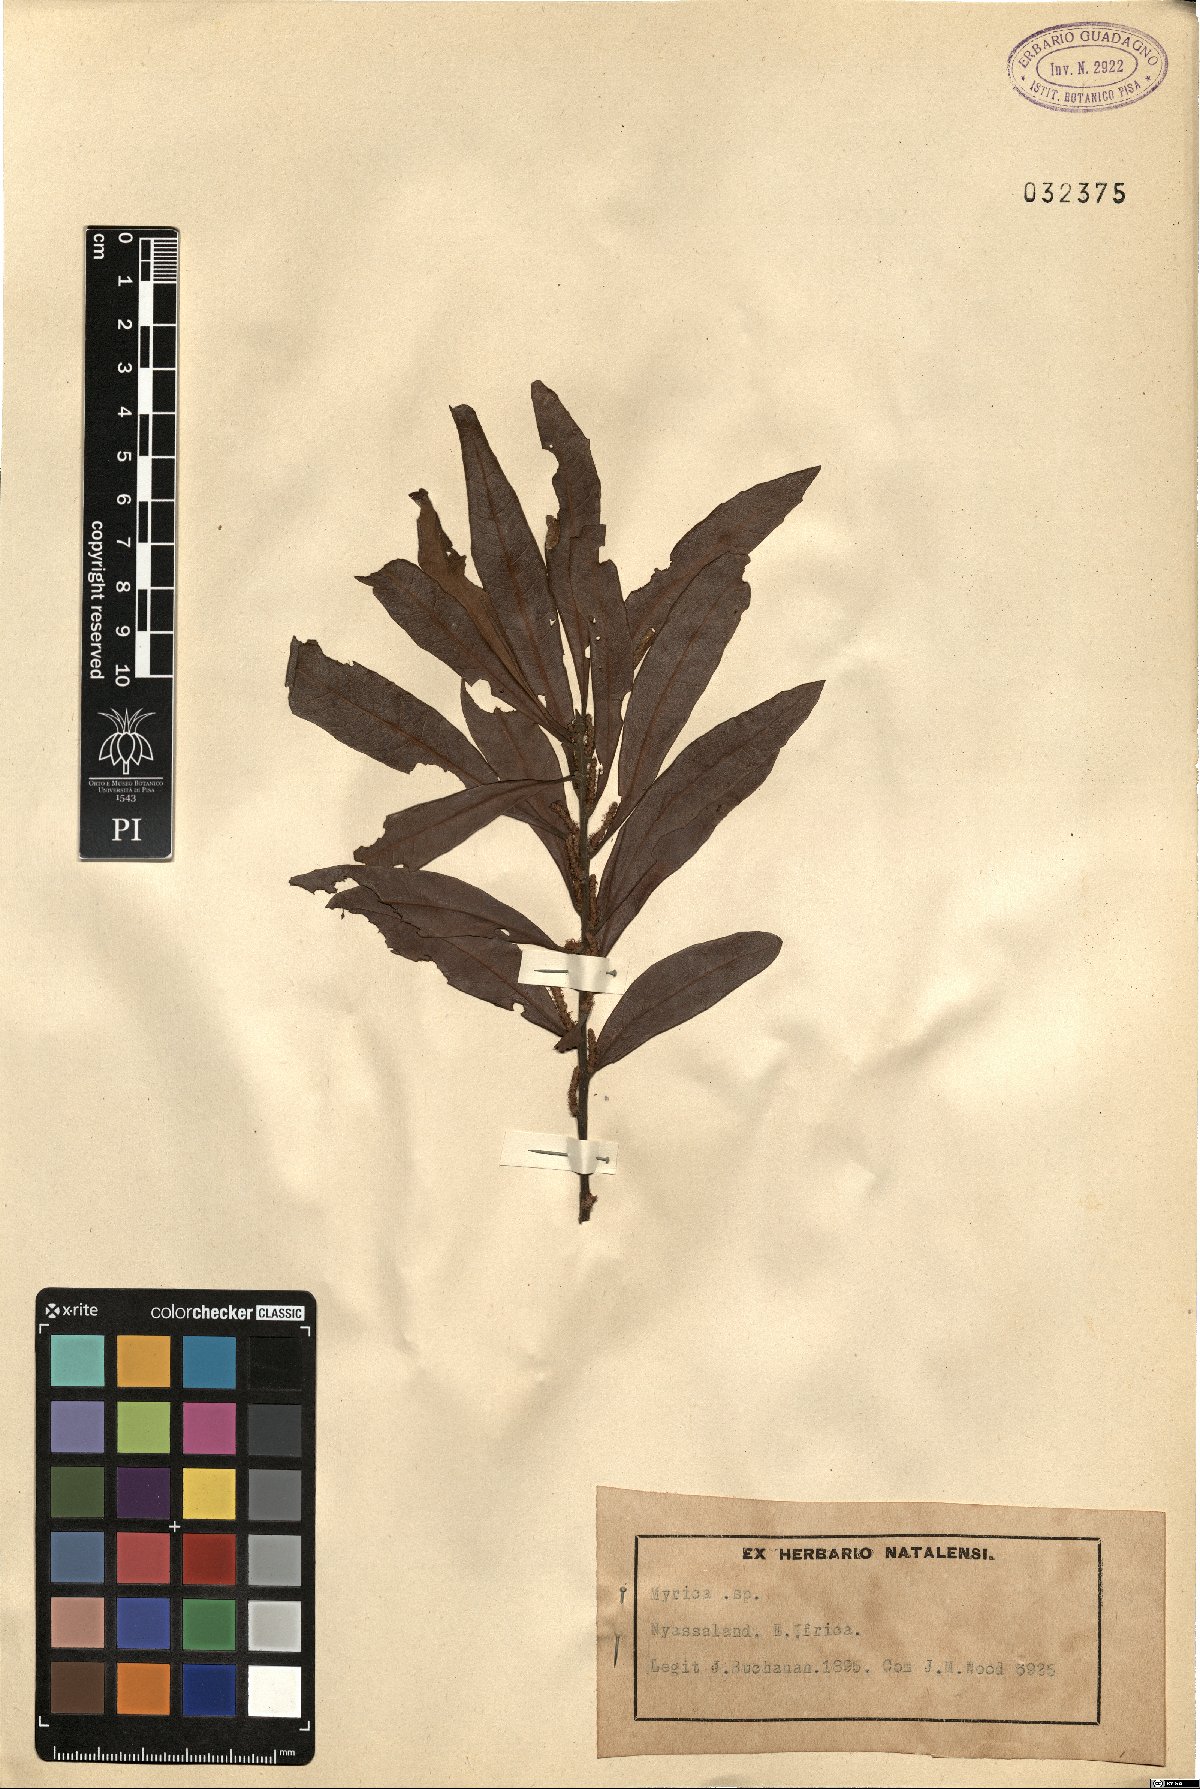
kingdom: Plantae
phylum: Tracheophyta
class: Magnoliopsida
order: Fagales
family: Myricaceae
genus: Myrica
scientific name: Myrica
